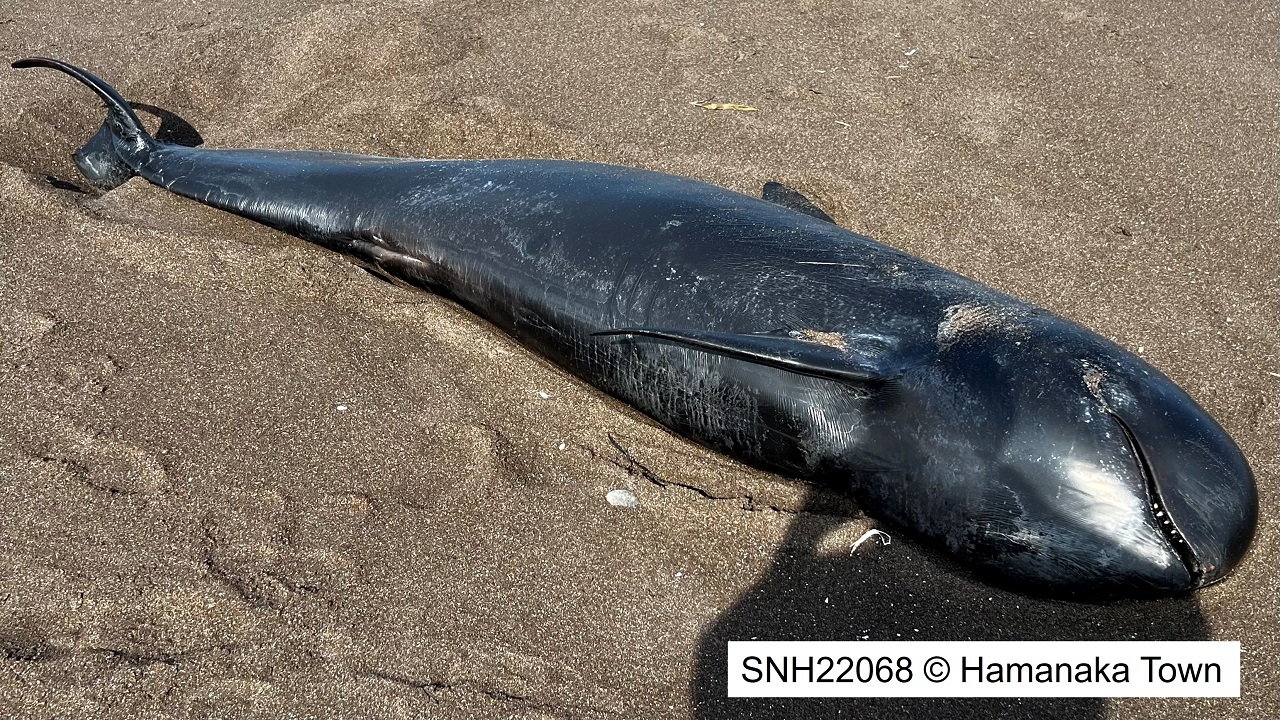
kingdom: Animalia
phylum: Chordata
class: Mammalia
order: Cetacea
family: Delphinidae
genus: Globicephala
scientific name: Globicephala macrorhynchus
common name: Short-finned pilot whale
